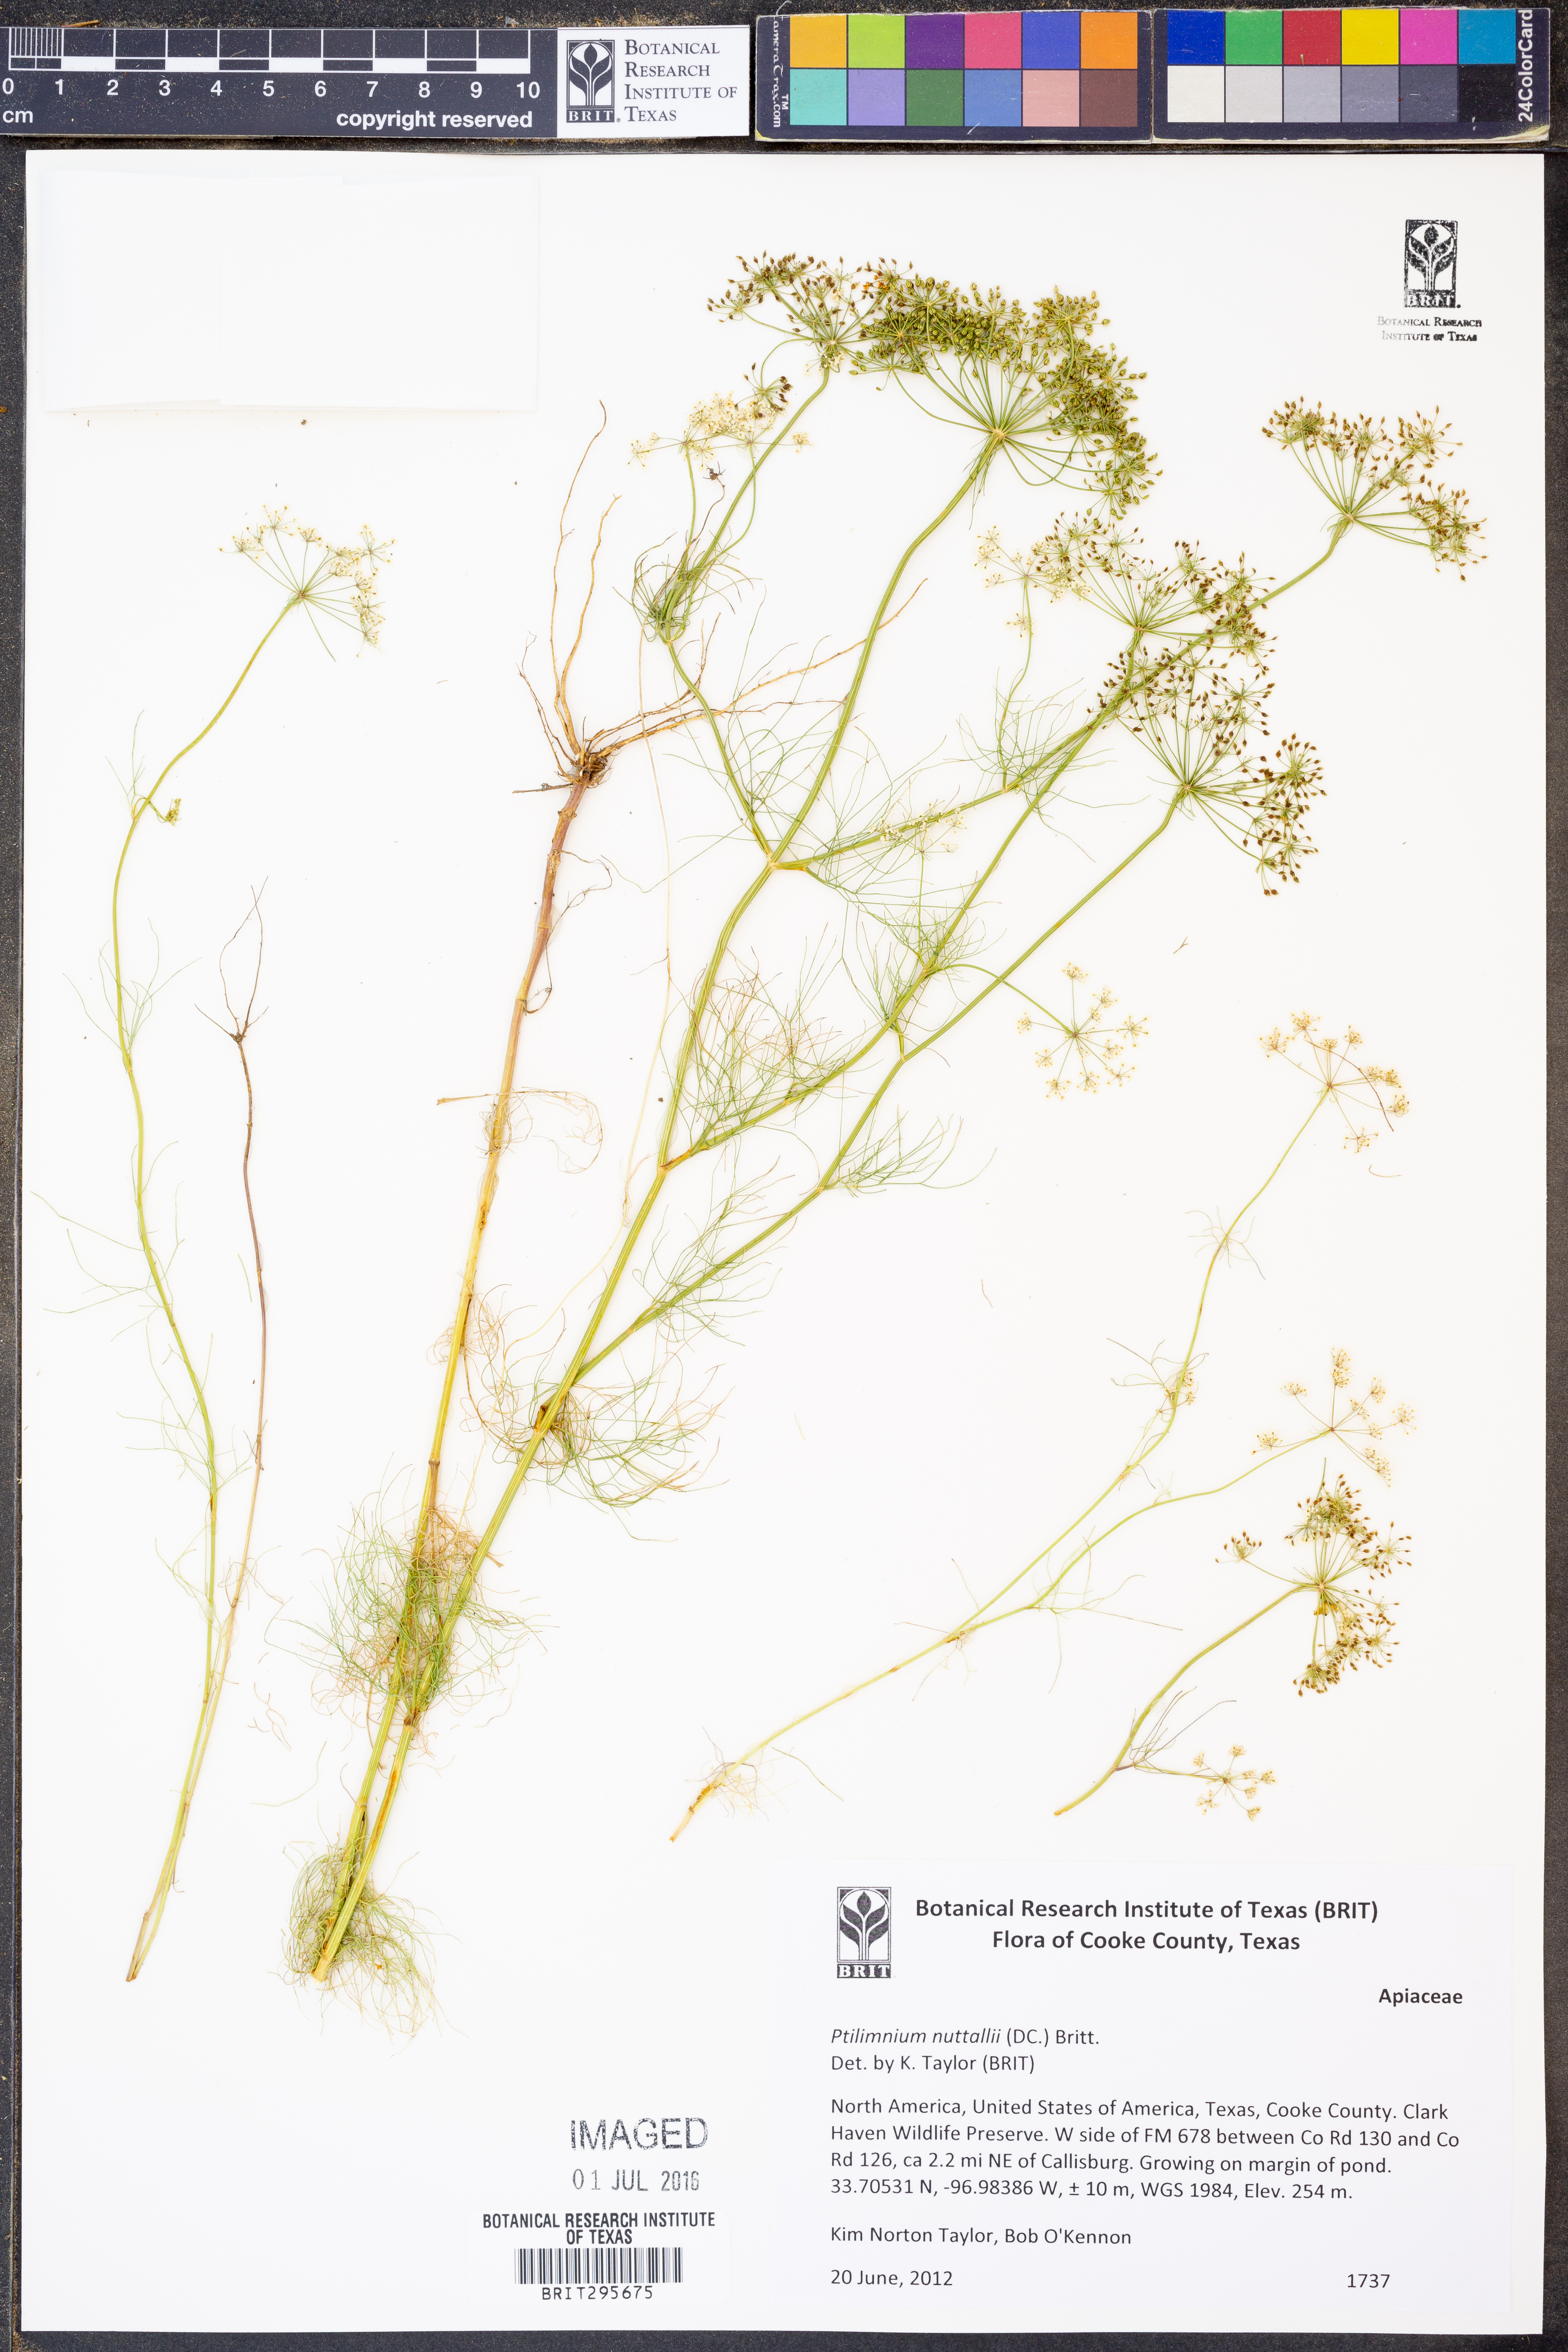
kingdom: Plantae
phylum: Tracheophyta
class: Magnoliopsida
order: Apiales
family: Apiaceae
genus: Ptilimnium
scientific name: Ptilimnium nuttallii
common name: Ozark bishop's-weed
